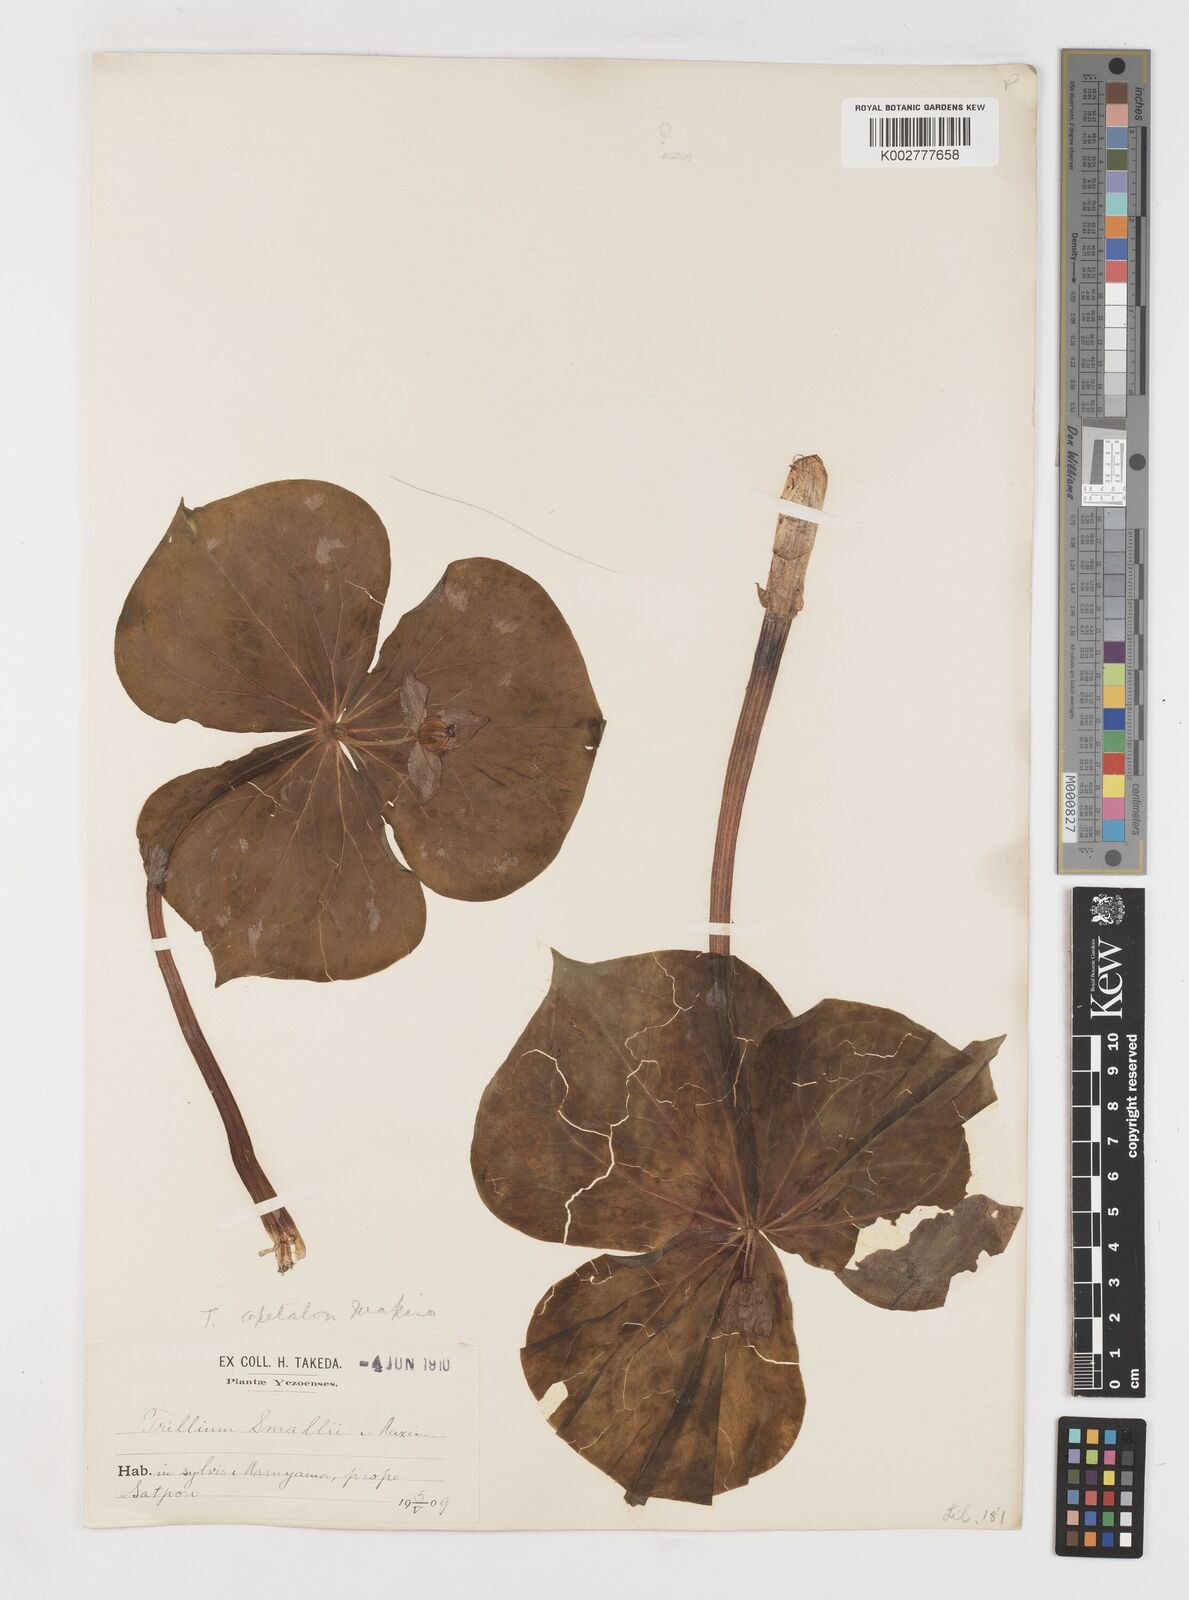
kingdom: Plantae
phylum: Tracheophyta
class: Liliopsida
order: Liliales
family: Melanthiaceae
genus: Trillium
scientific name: Trillium smallii
